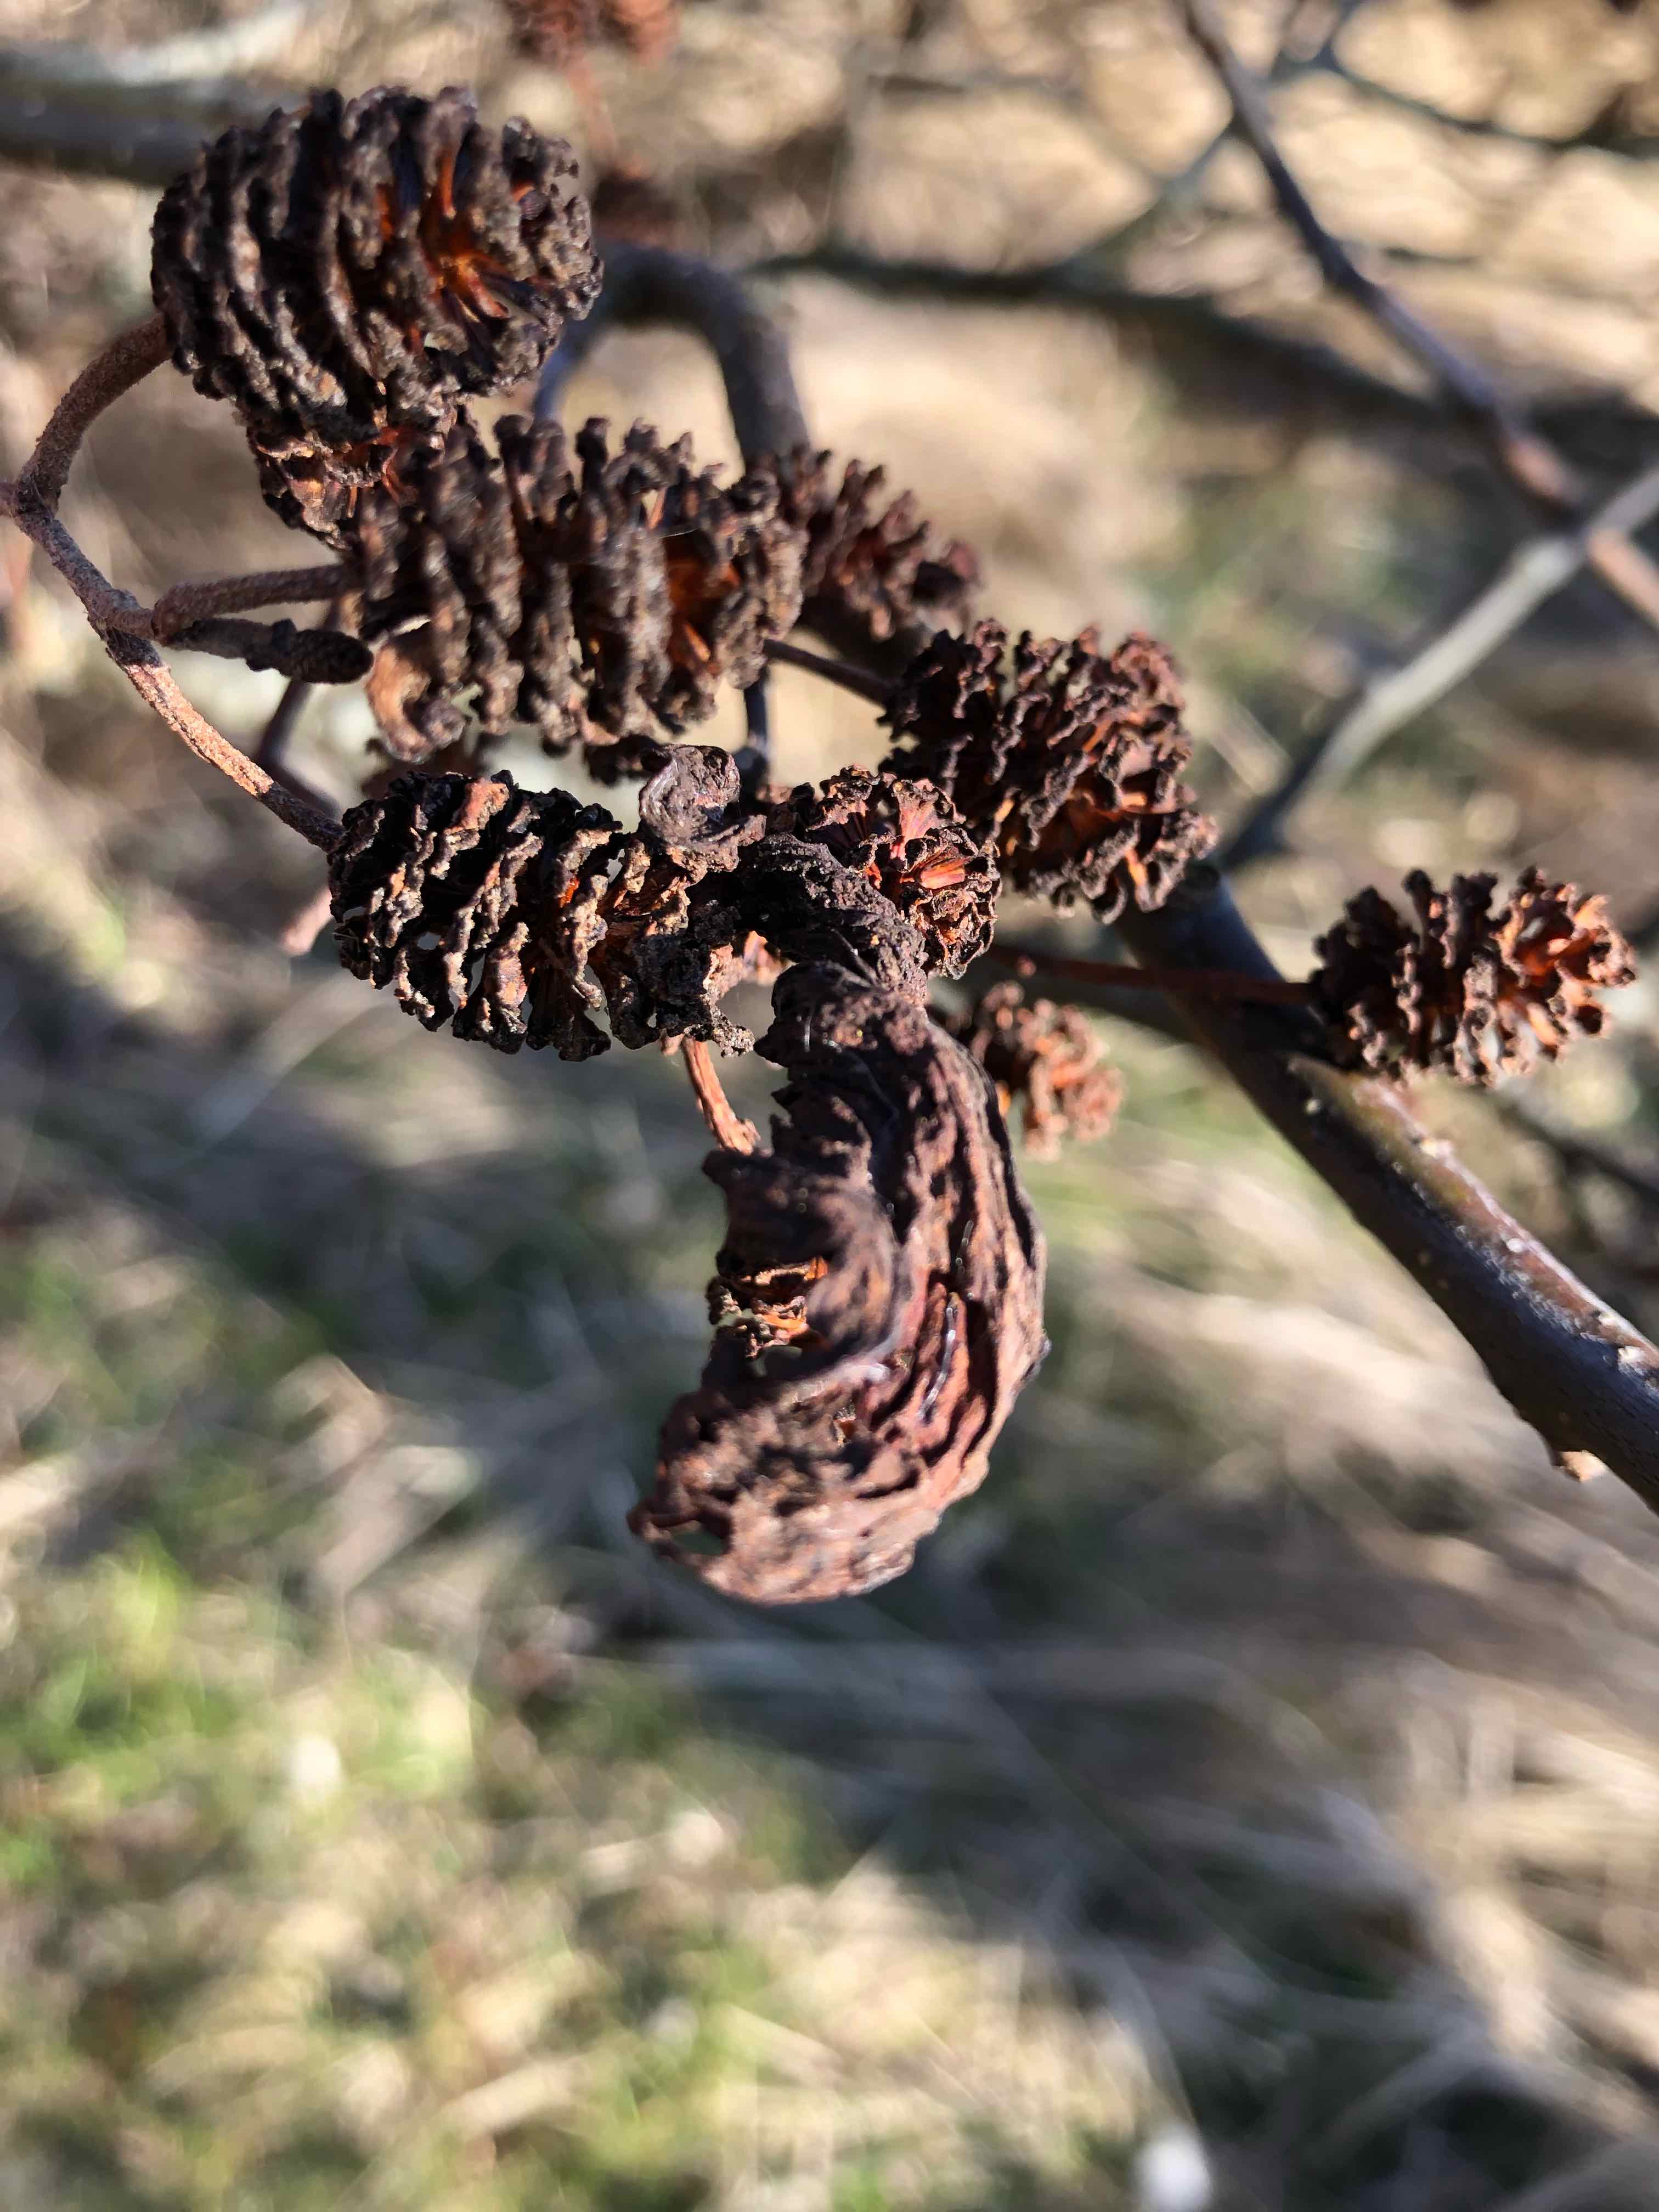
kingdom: Fungi
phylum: Ascomycota
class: Taphrinomycetes
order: Taphrinales
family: Taphrinaceae
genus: Taphrina
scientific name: Taphrina alni
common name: Alder tongue
